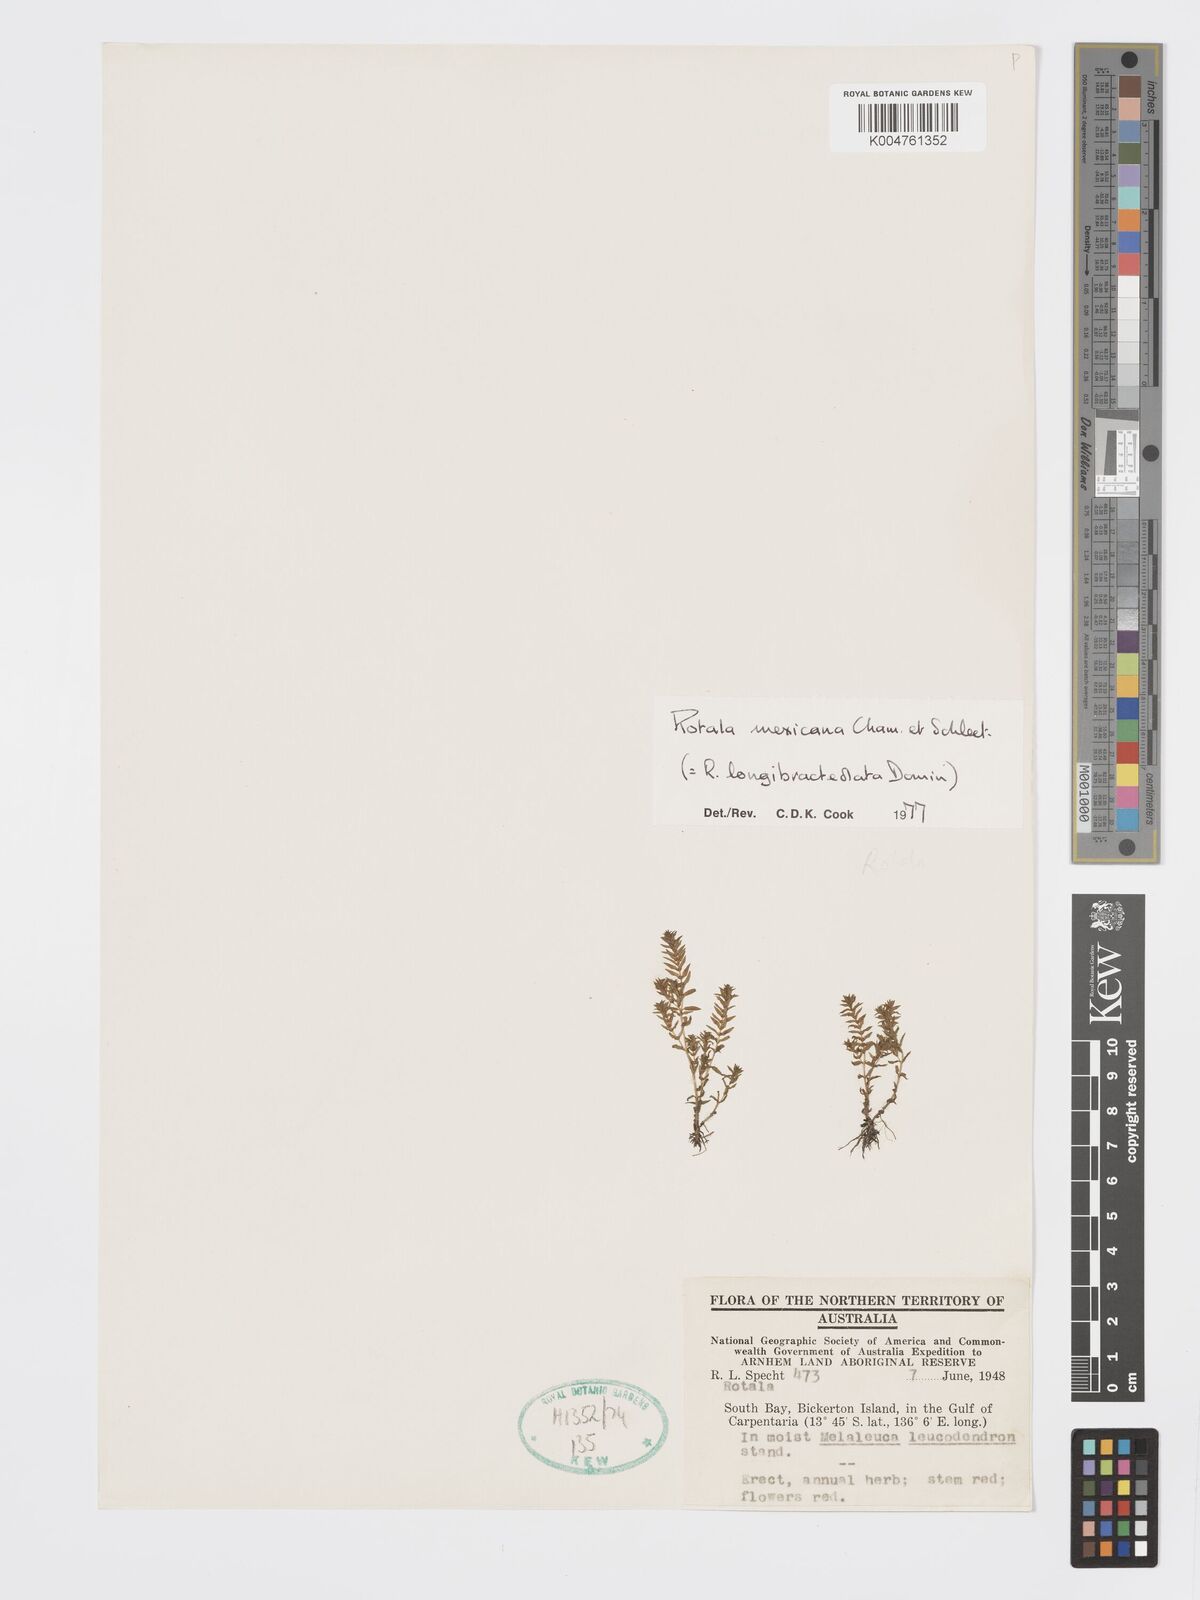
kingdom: Plantae
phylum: Tracheophyta
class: Magnoliopsida
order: Myrtales
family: Lythraceae
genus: Rotala
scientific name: Rotala mexicana
